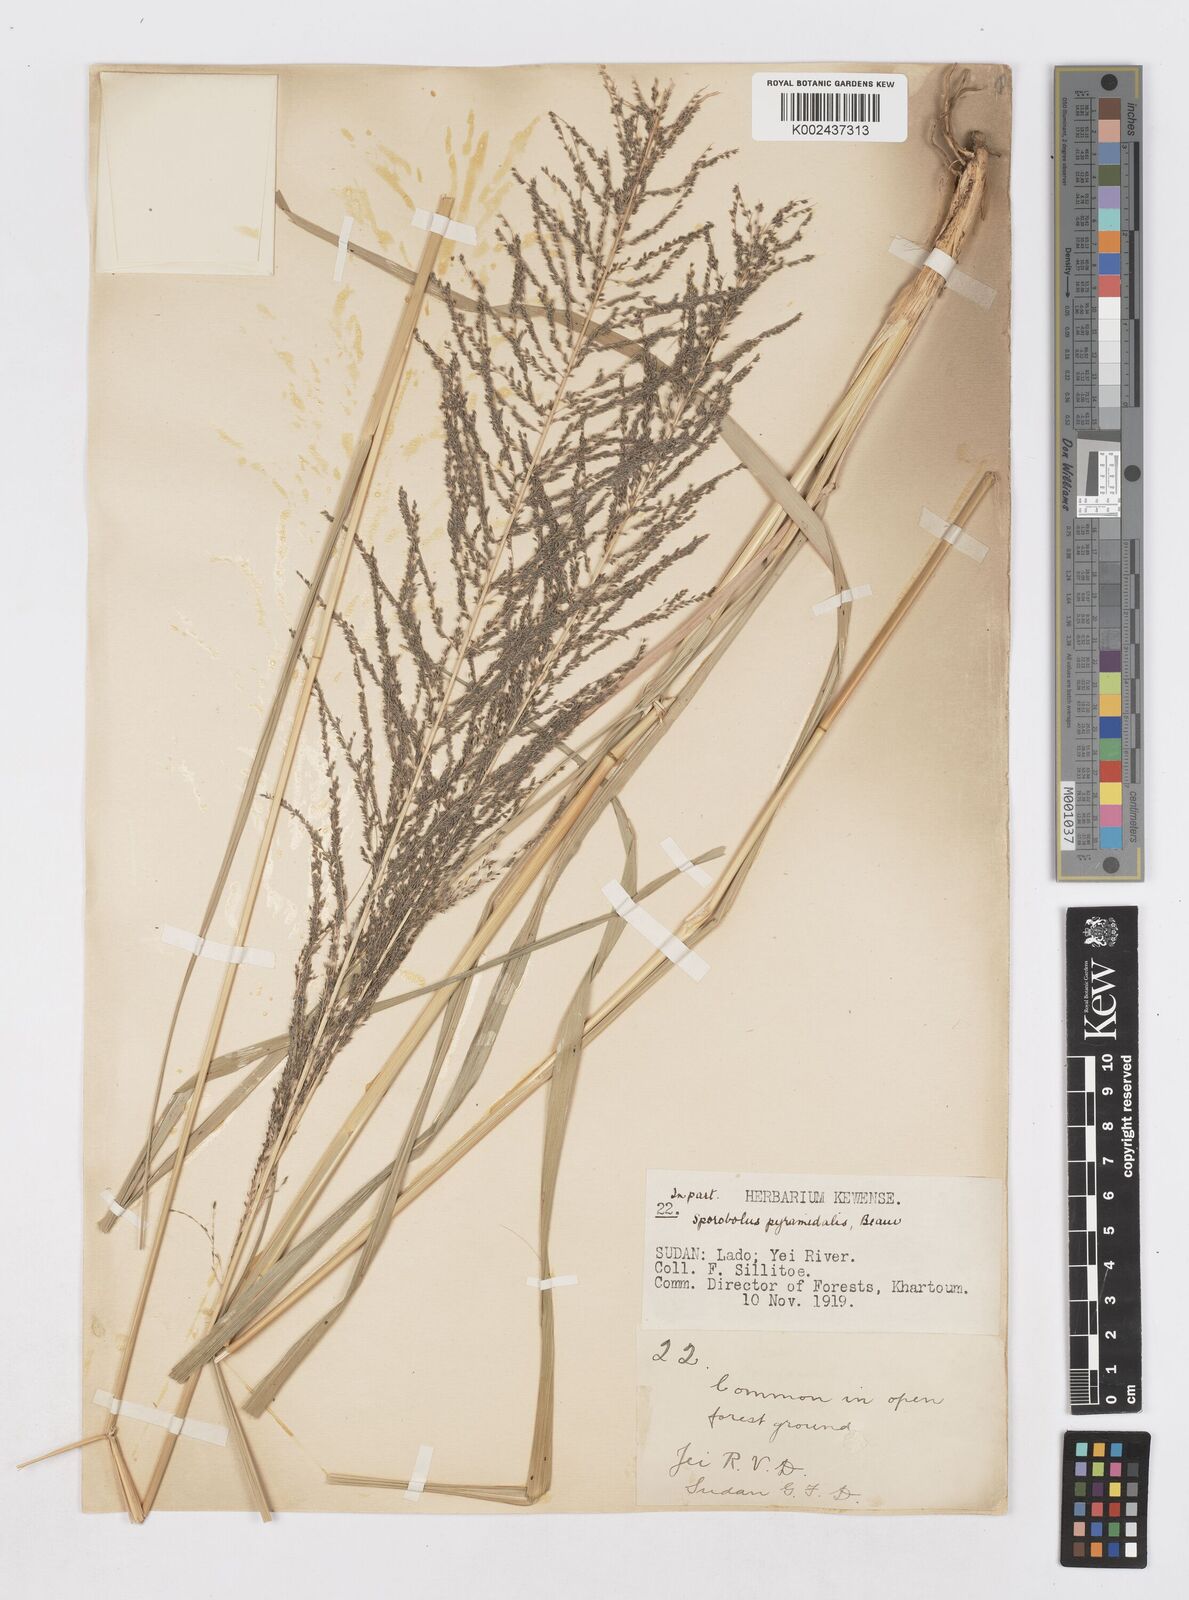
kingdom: Plantae
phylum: Tracheophyta
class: Liliopsida
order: Poales
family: Poaceae
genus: Sporobolus
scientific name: Sporobolus pyramidalis
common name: West indian dropseed
